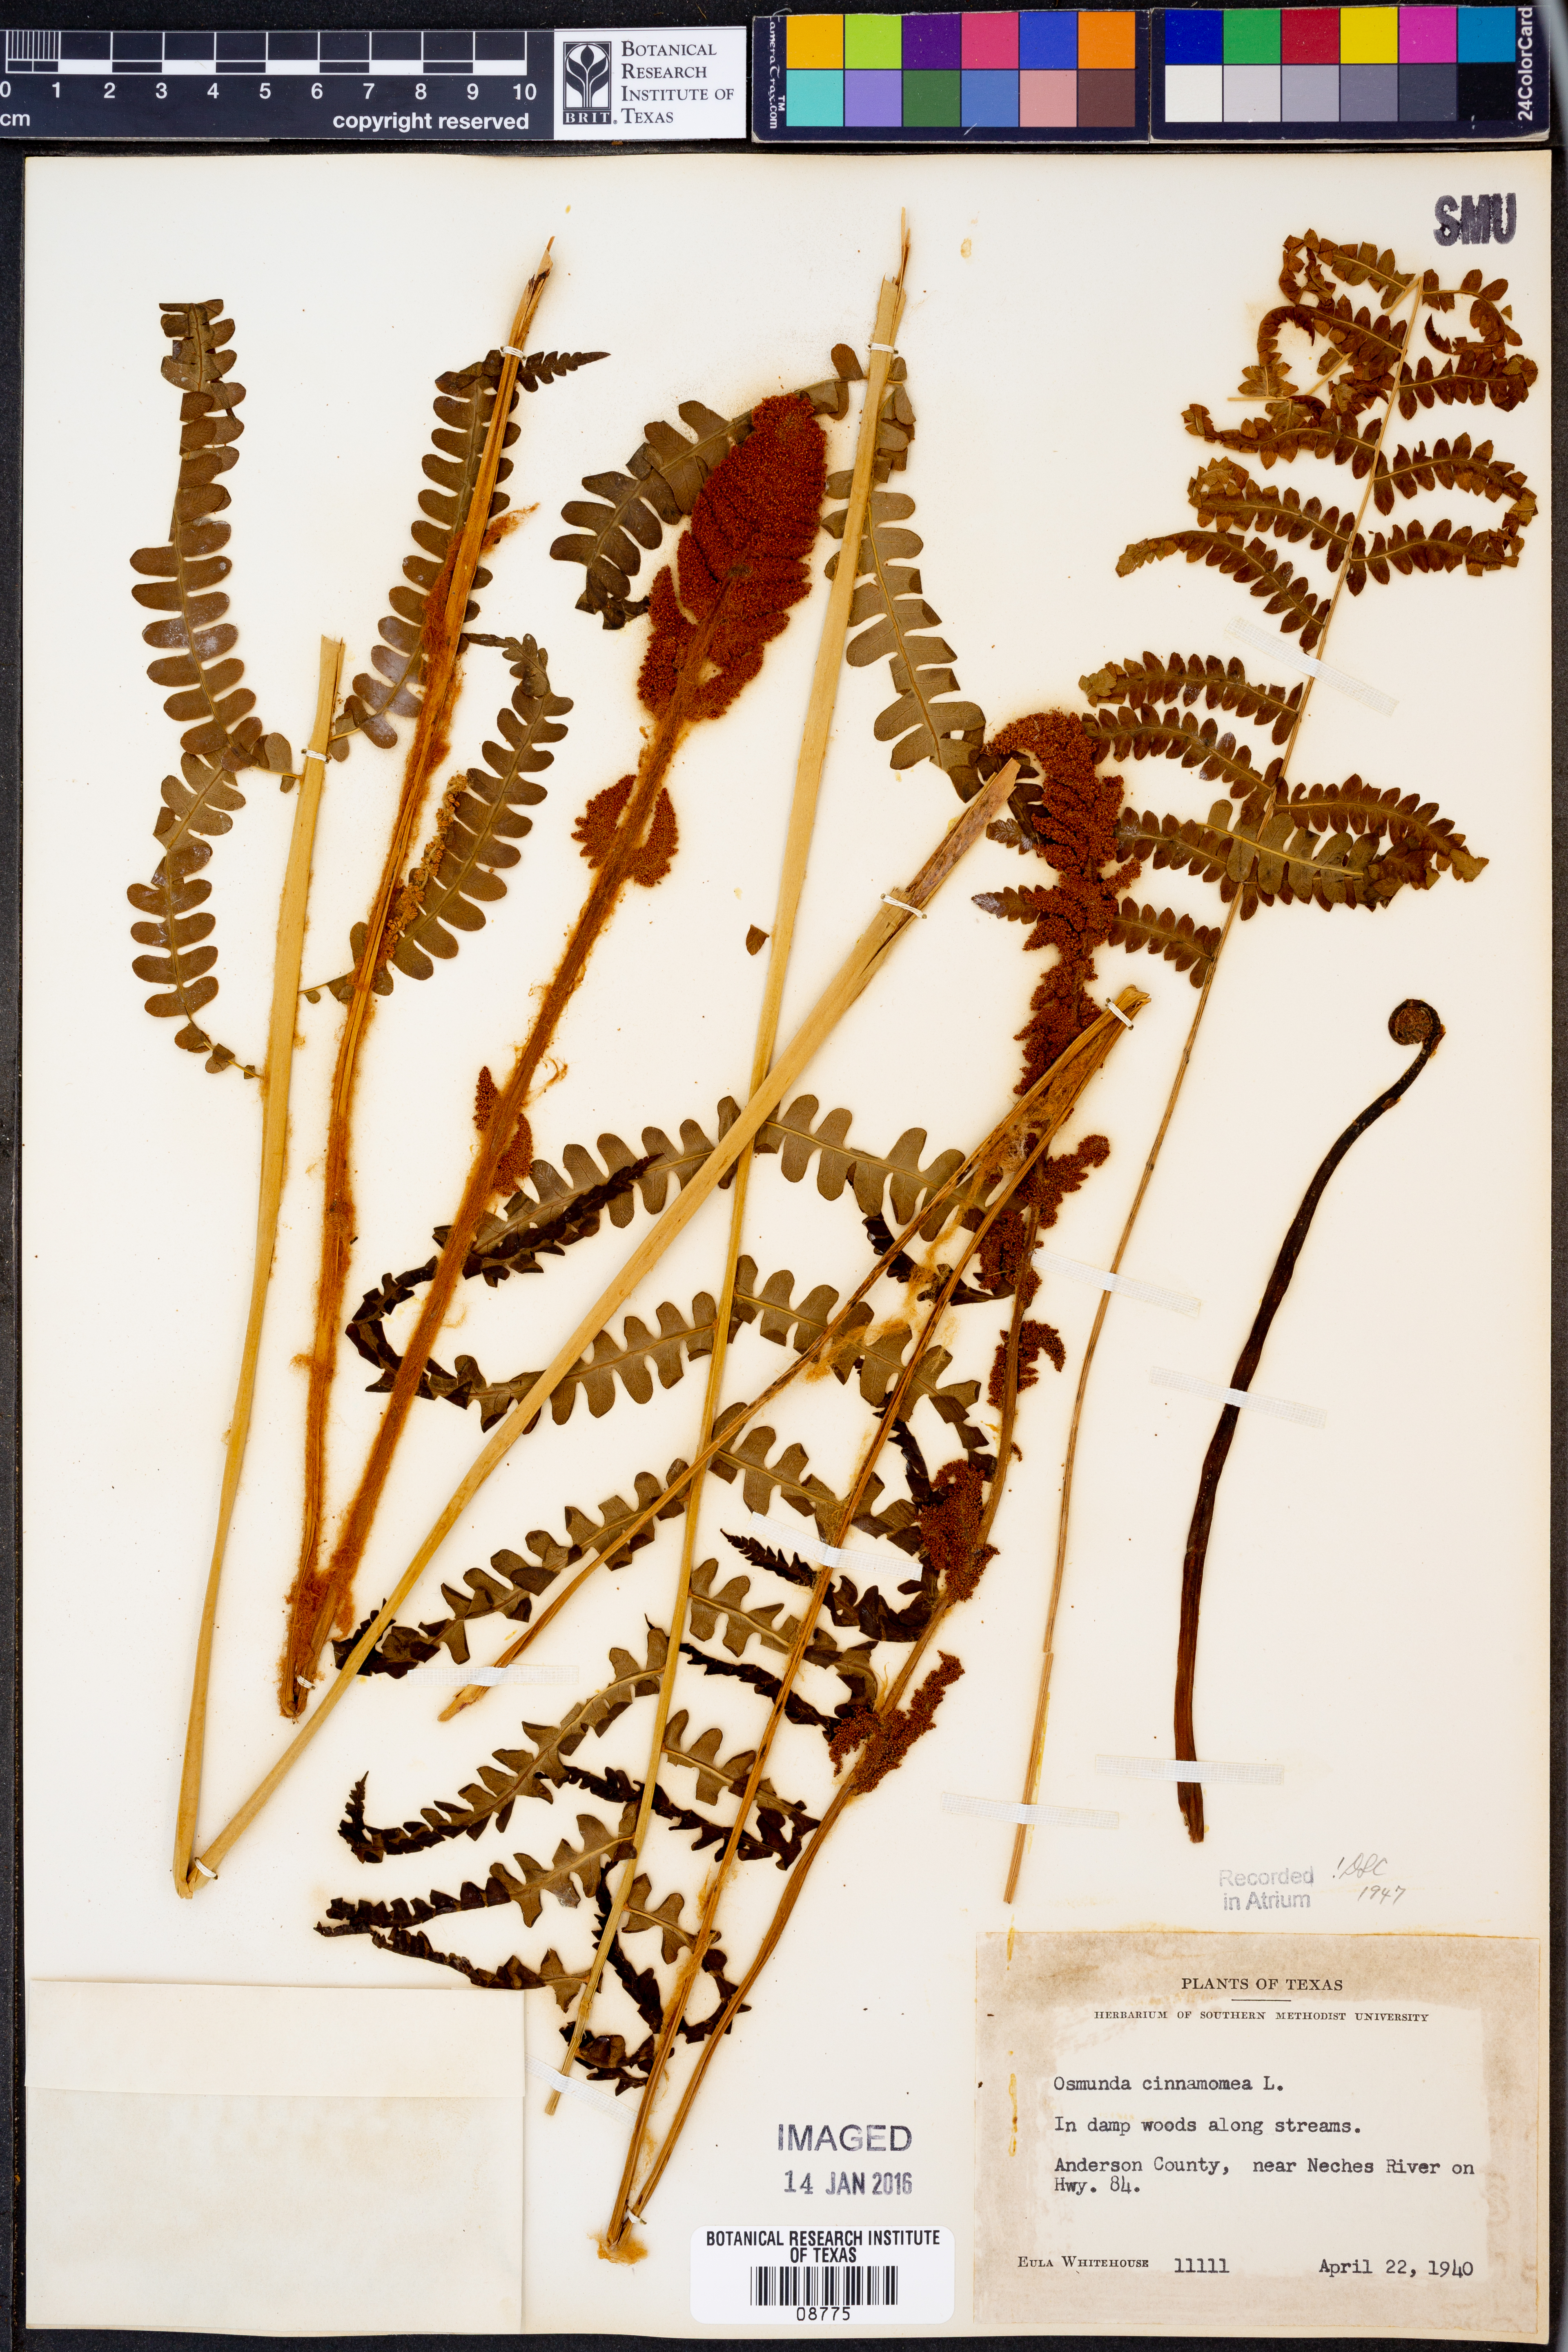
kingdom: Plantae
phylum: Tracheophyta
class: Polypodiopsida
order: Osmundales
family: Osmundaceae
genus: Osmundastrum
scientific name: Osmundastrum cinnamomeum
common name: Cinnamon fern
